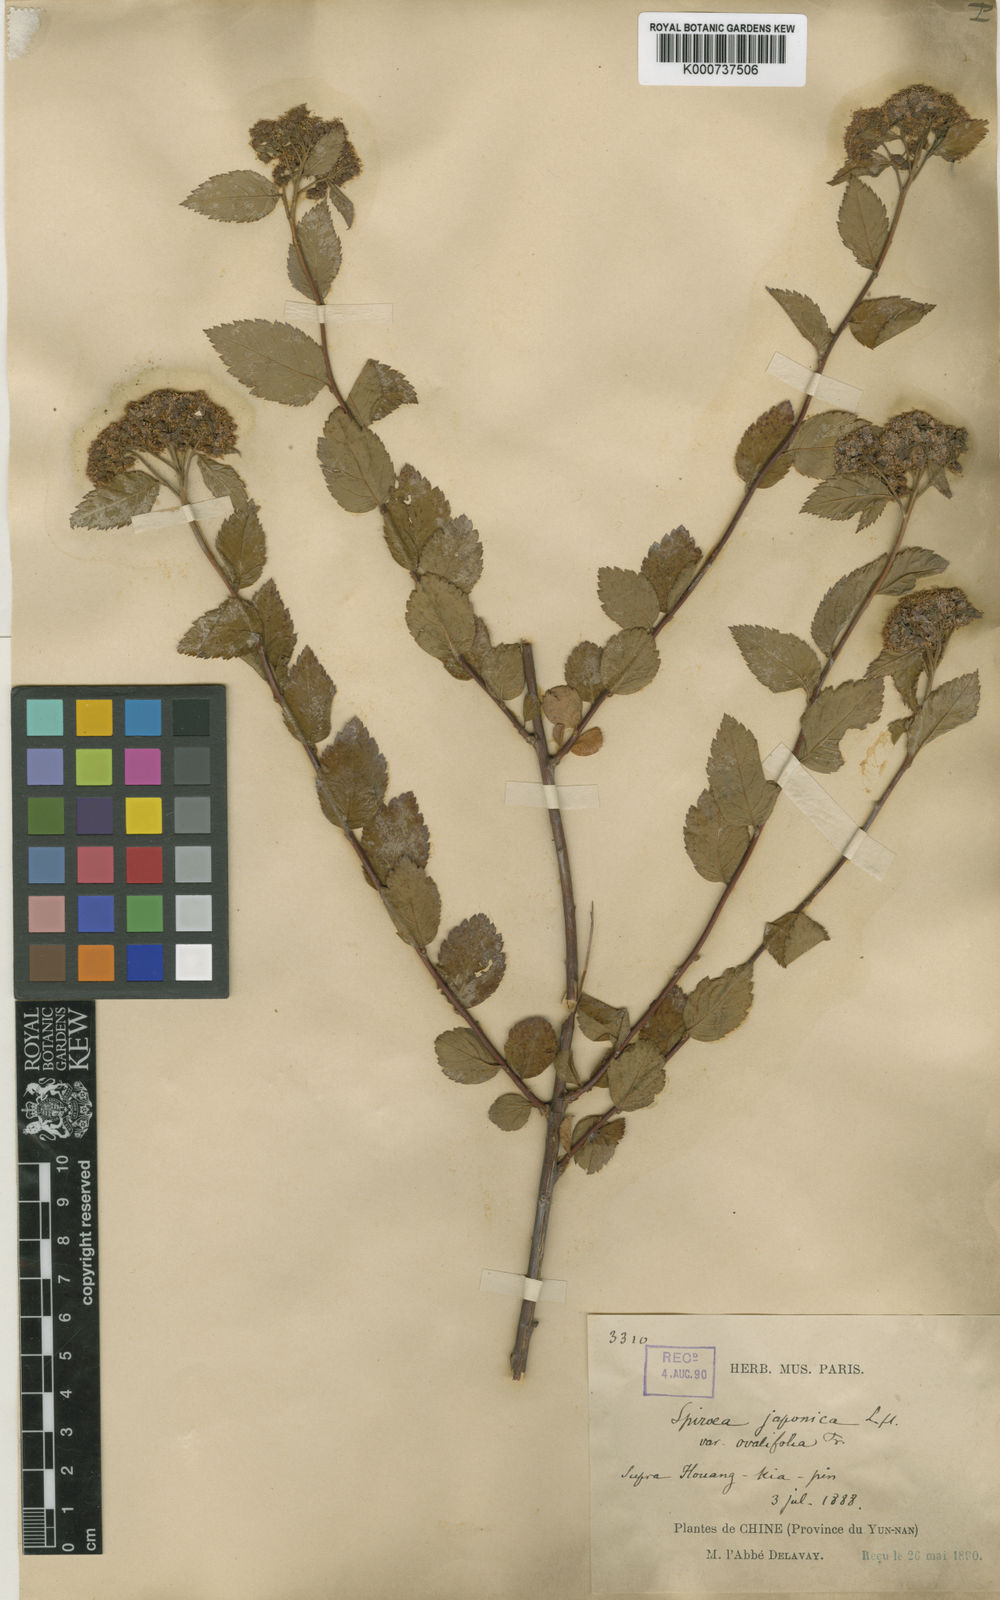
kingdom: Plantae
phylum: Tracheophyta
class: Magnoliopsida
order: Rosales
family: Rosaceae
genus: Spiraea
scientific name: Spiraea
